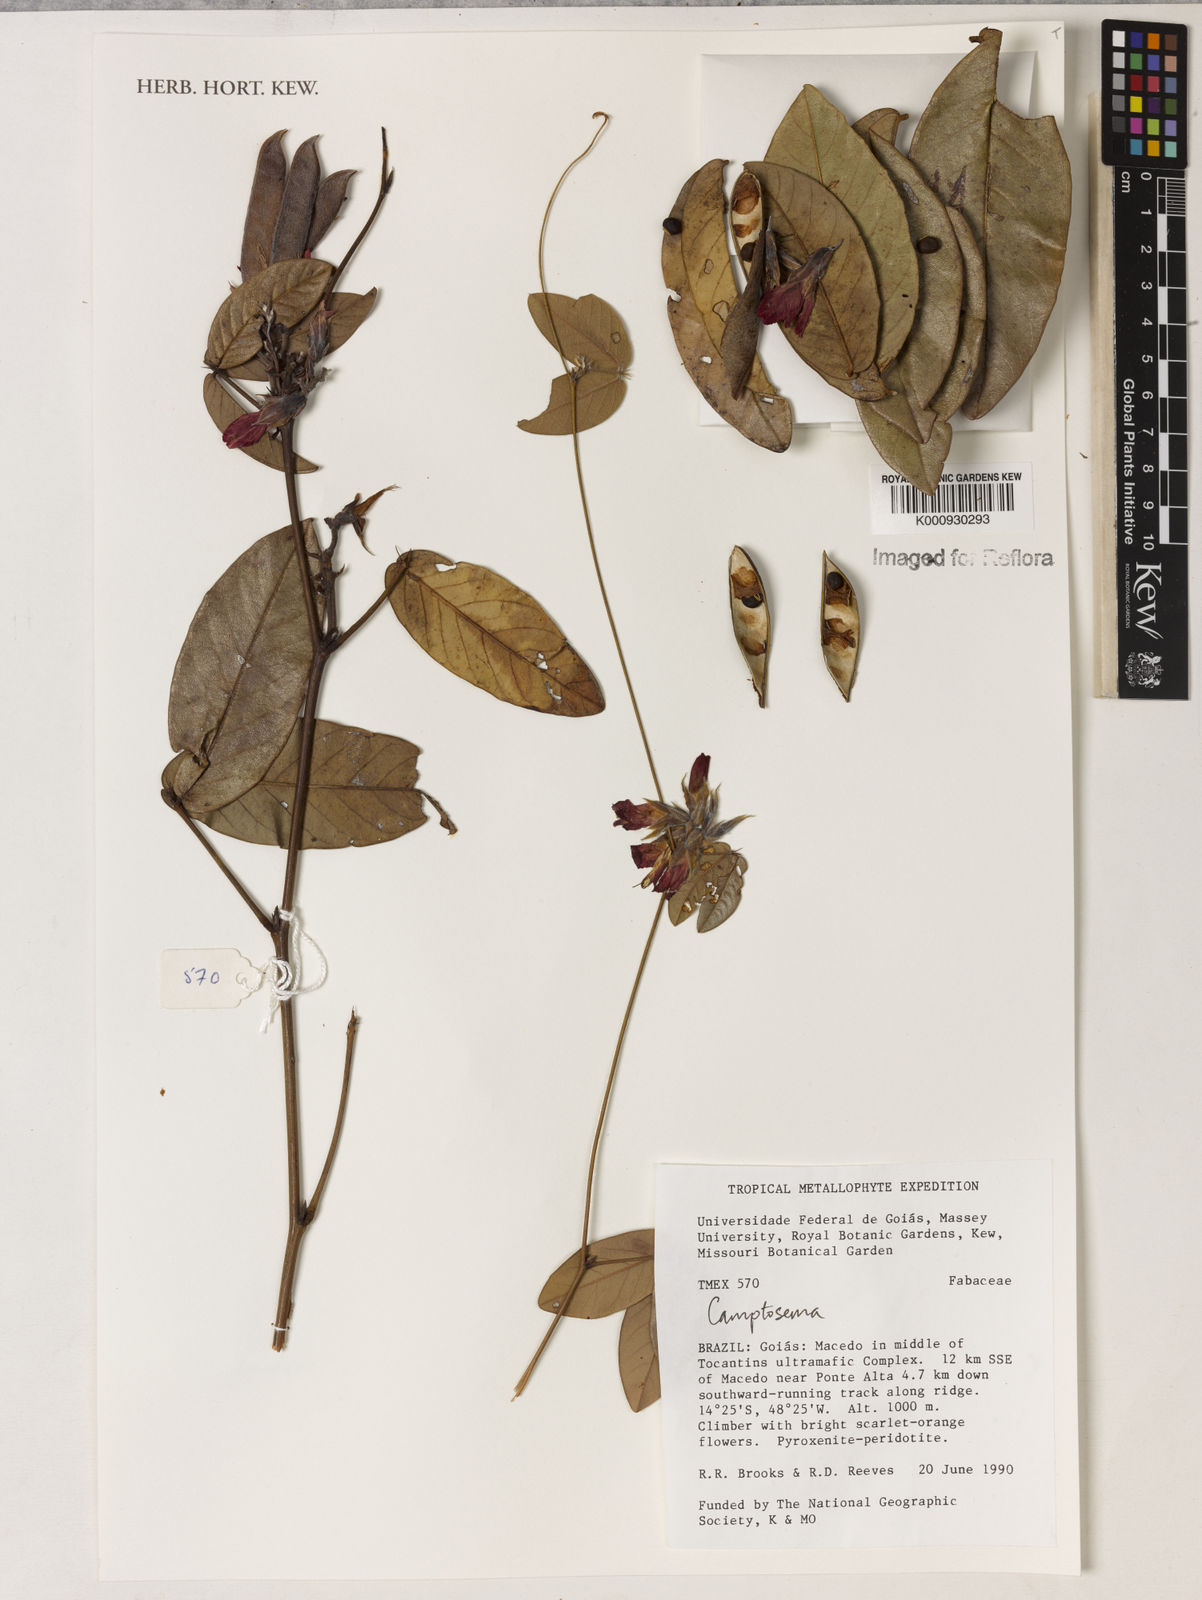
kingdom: Plantae
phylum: Tracheophyta
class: Magnoliopsida
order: Fabales
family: Fabaceae
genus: Camptosema
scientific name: Camptosema
